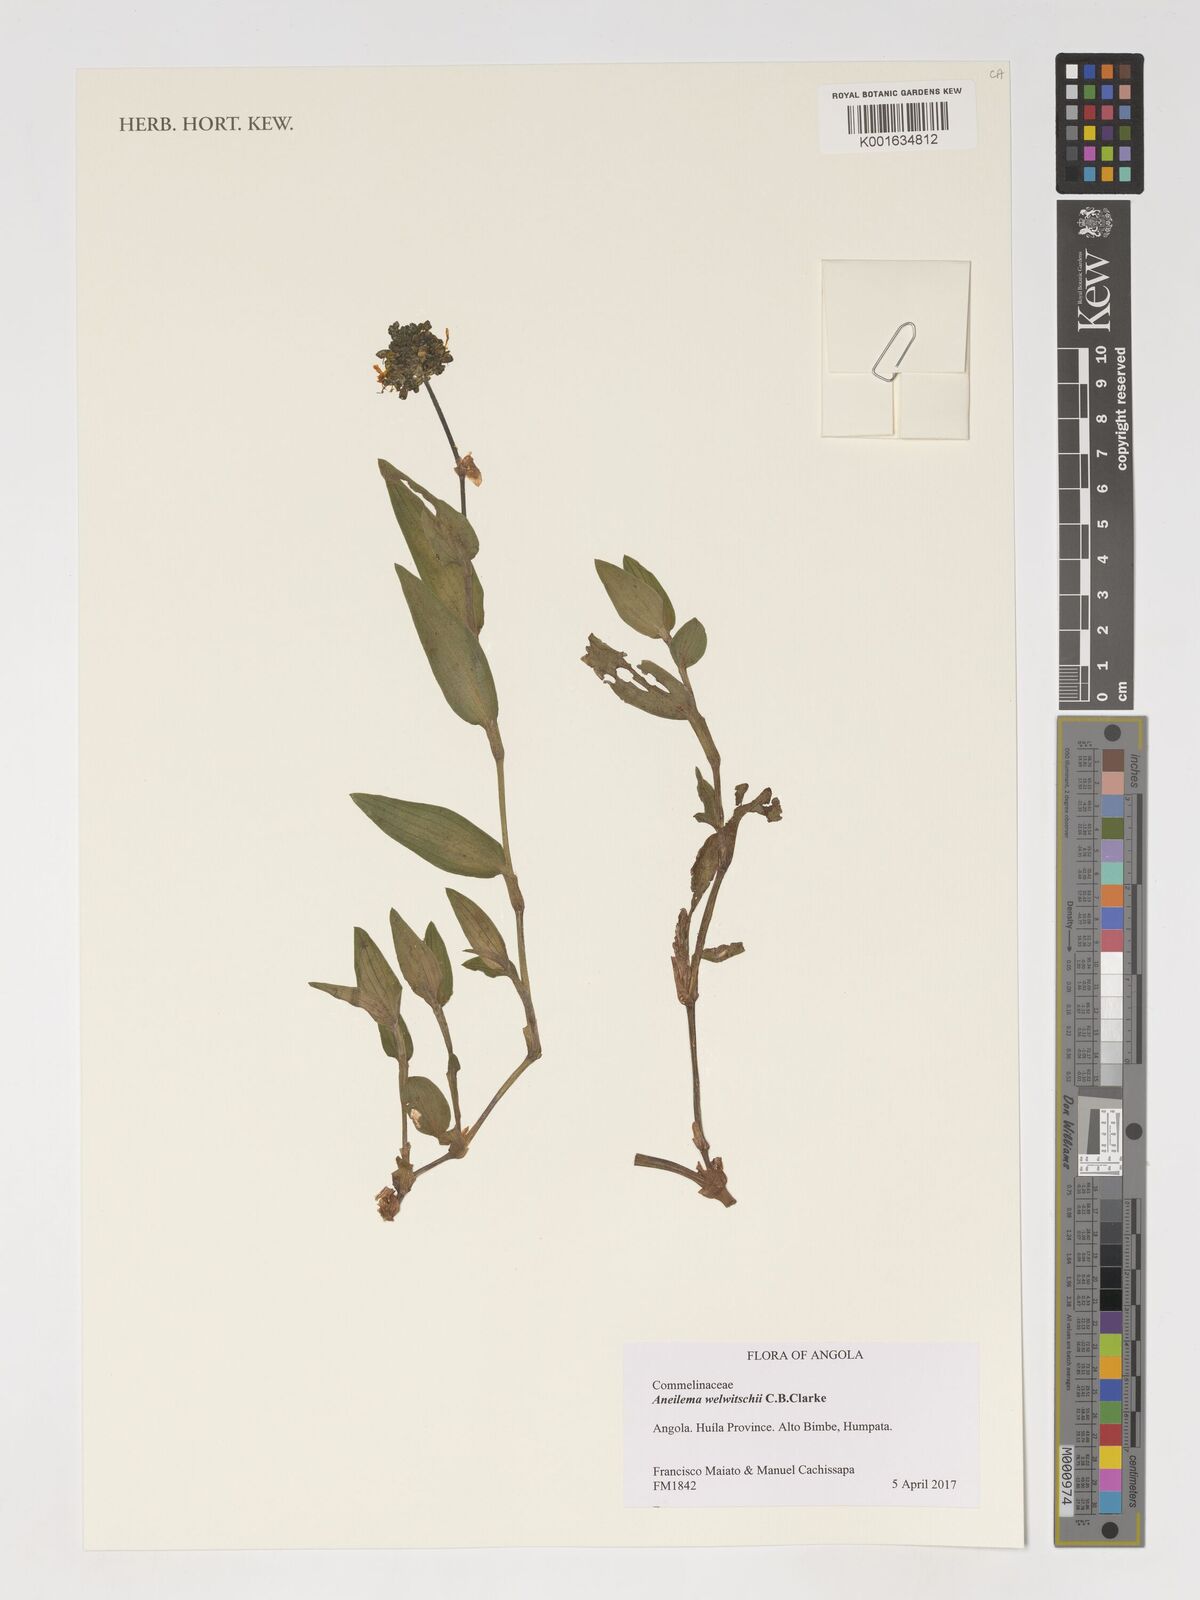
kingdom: Plantae
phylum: Tracheophyta
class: Liliopsida
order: Commelinales
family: Commelinaceae
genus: Aneilema
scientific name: Aneilema welwitschii
